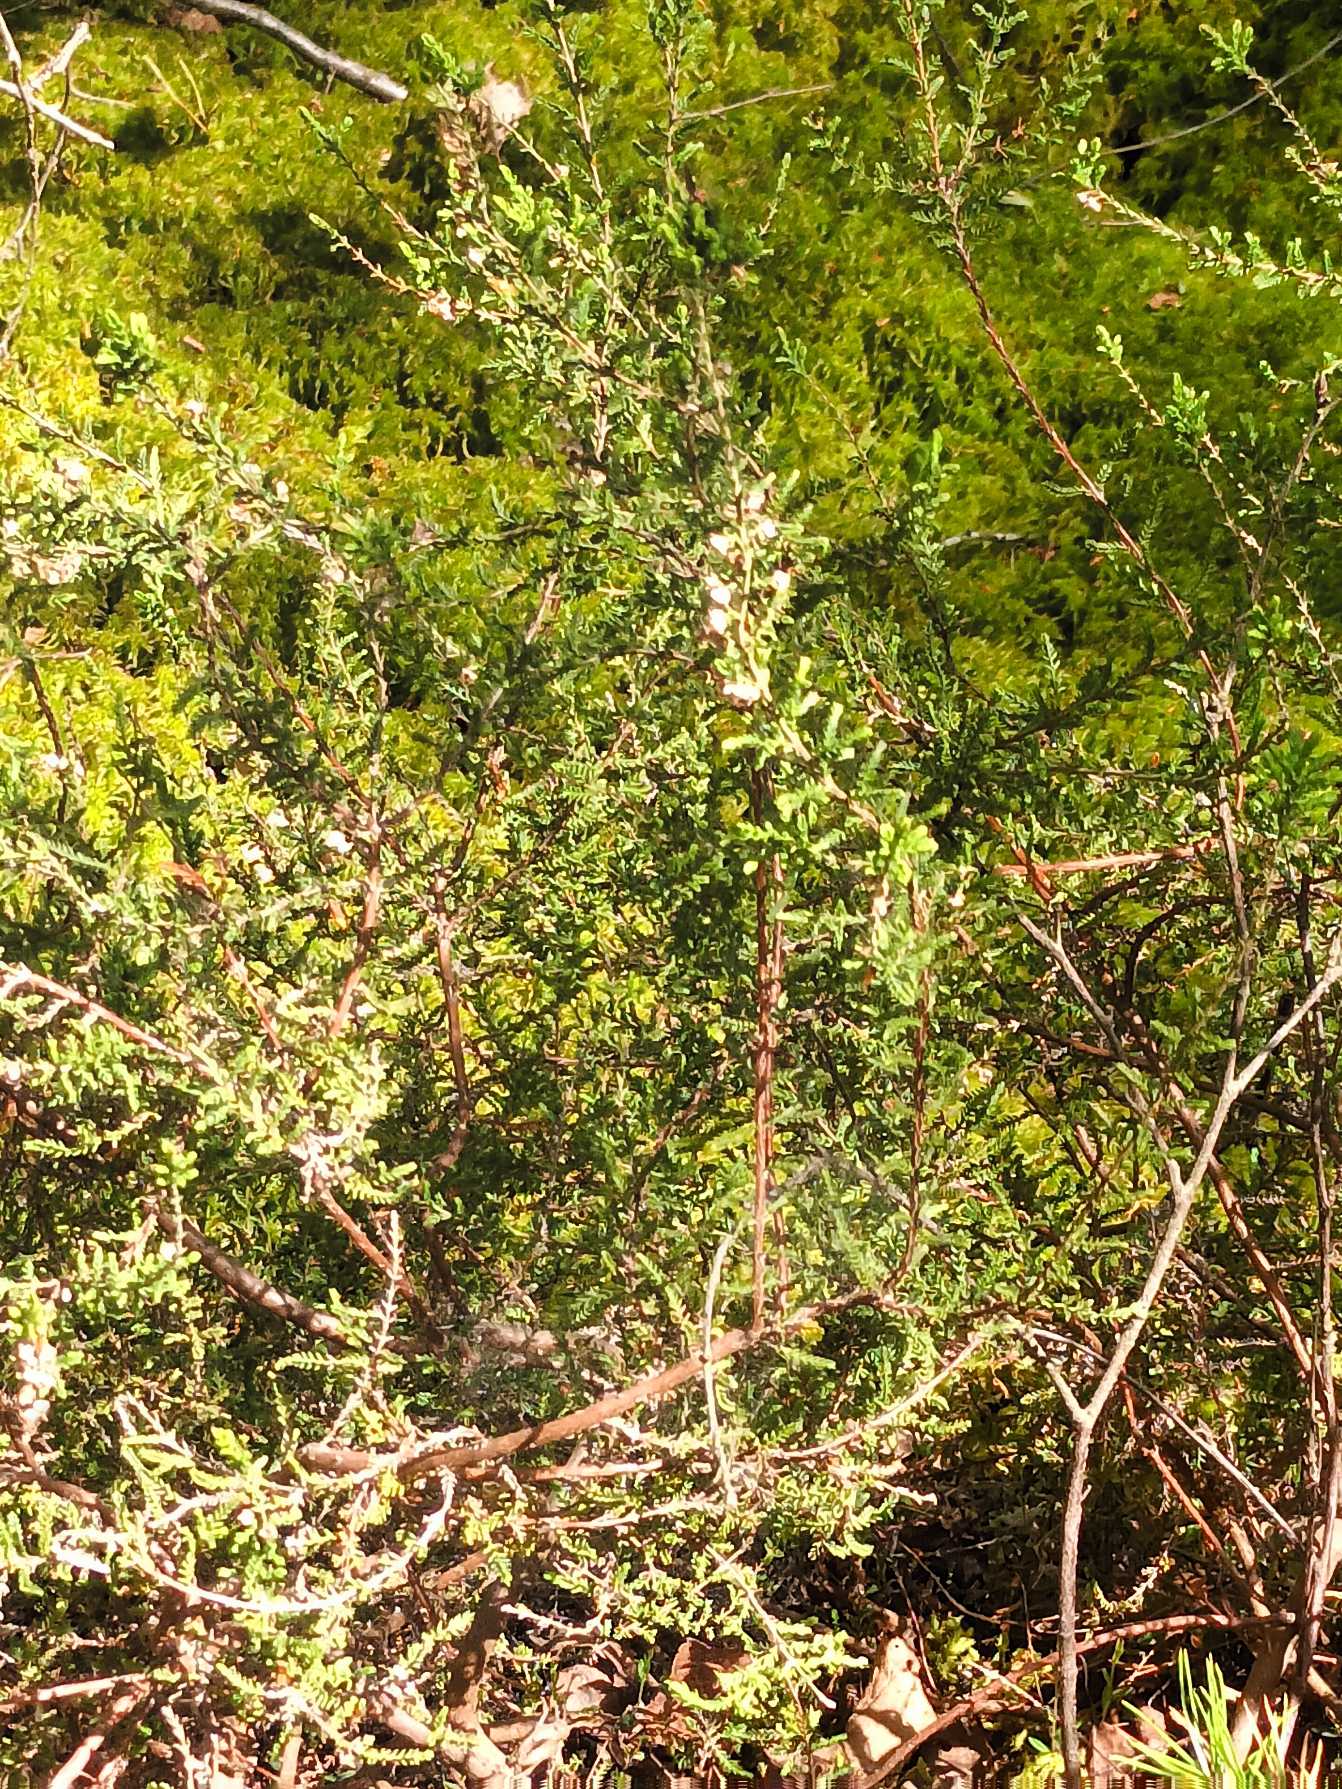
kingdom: Plantae
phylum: Tracheophyta
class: Magnoliopsida
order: Ericales
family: Ericaceae
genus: Calluna
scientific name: Calluna vulgaris
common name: Hedelyng
